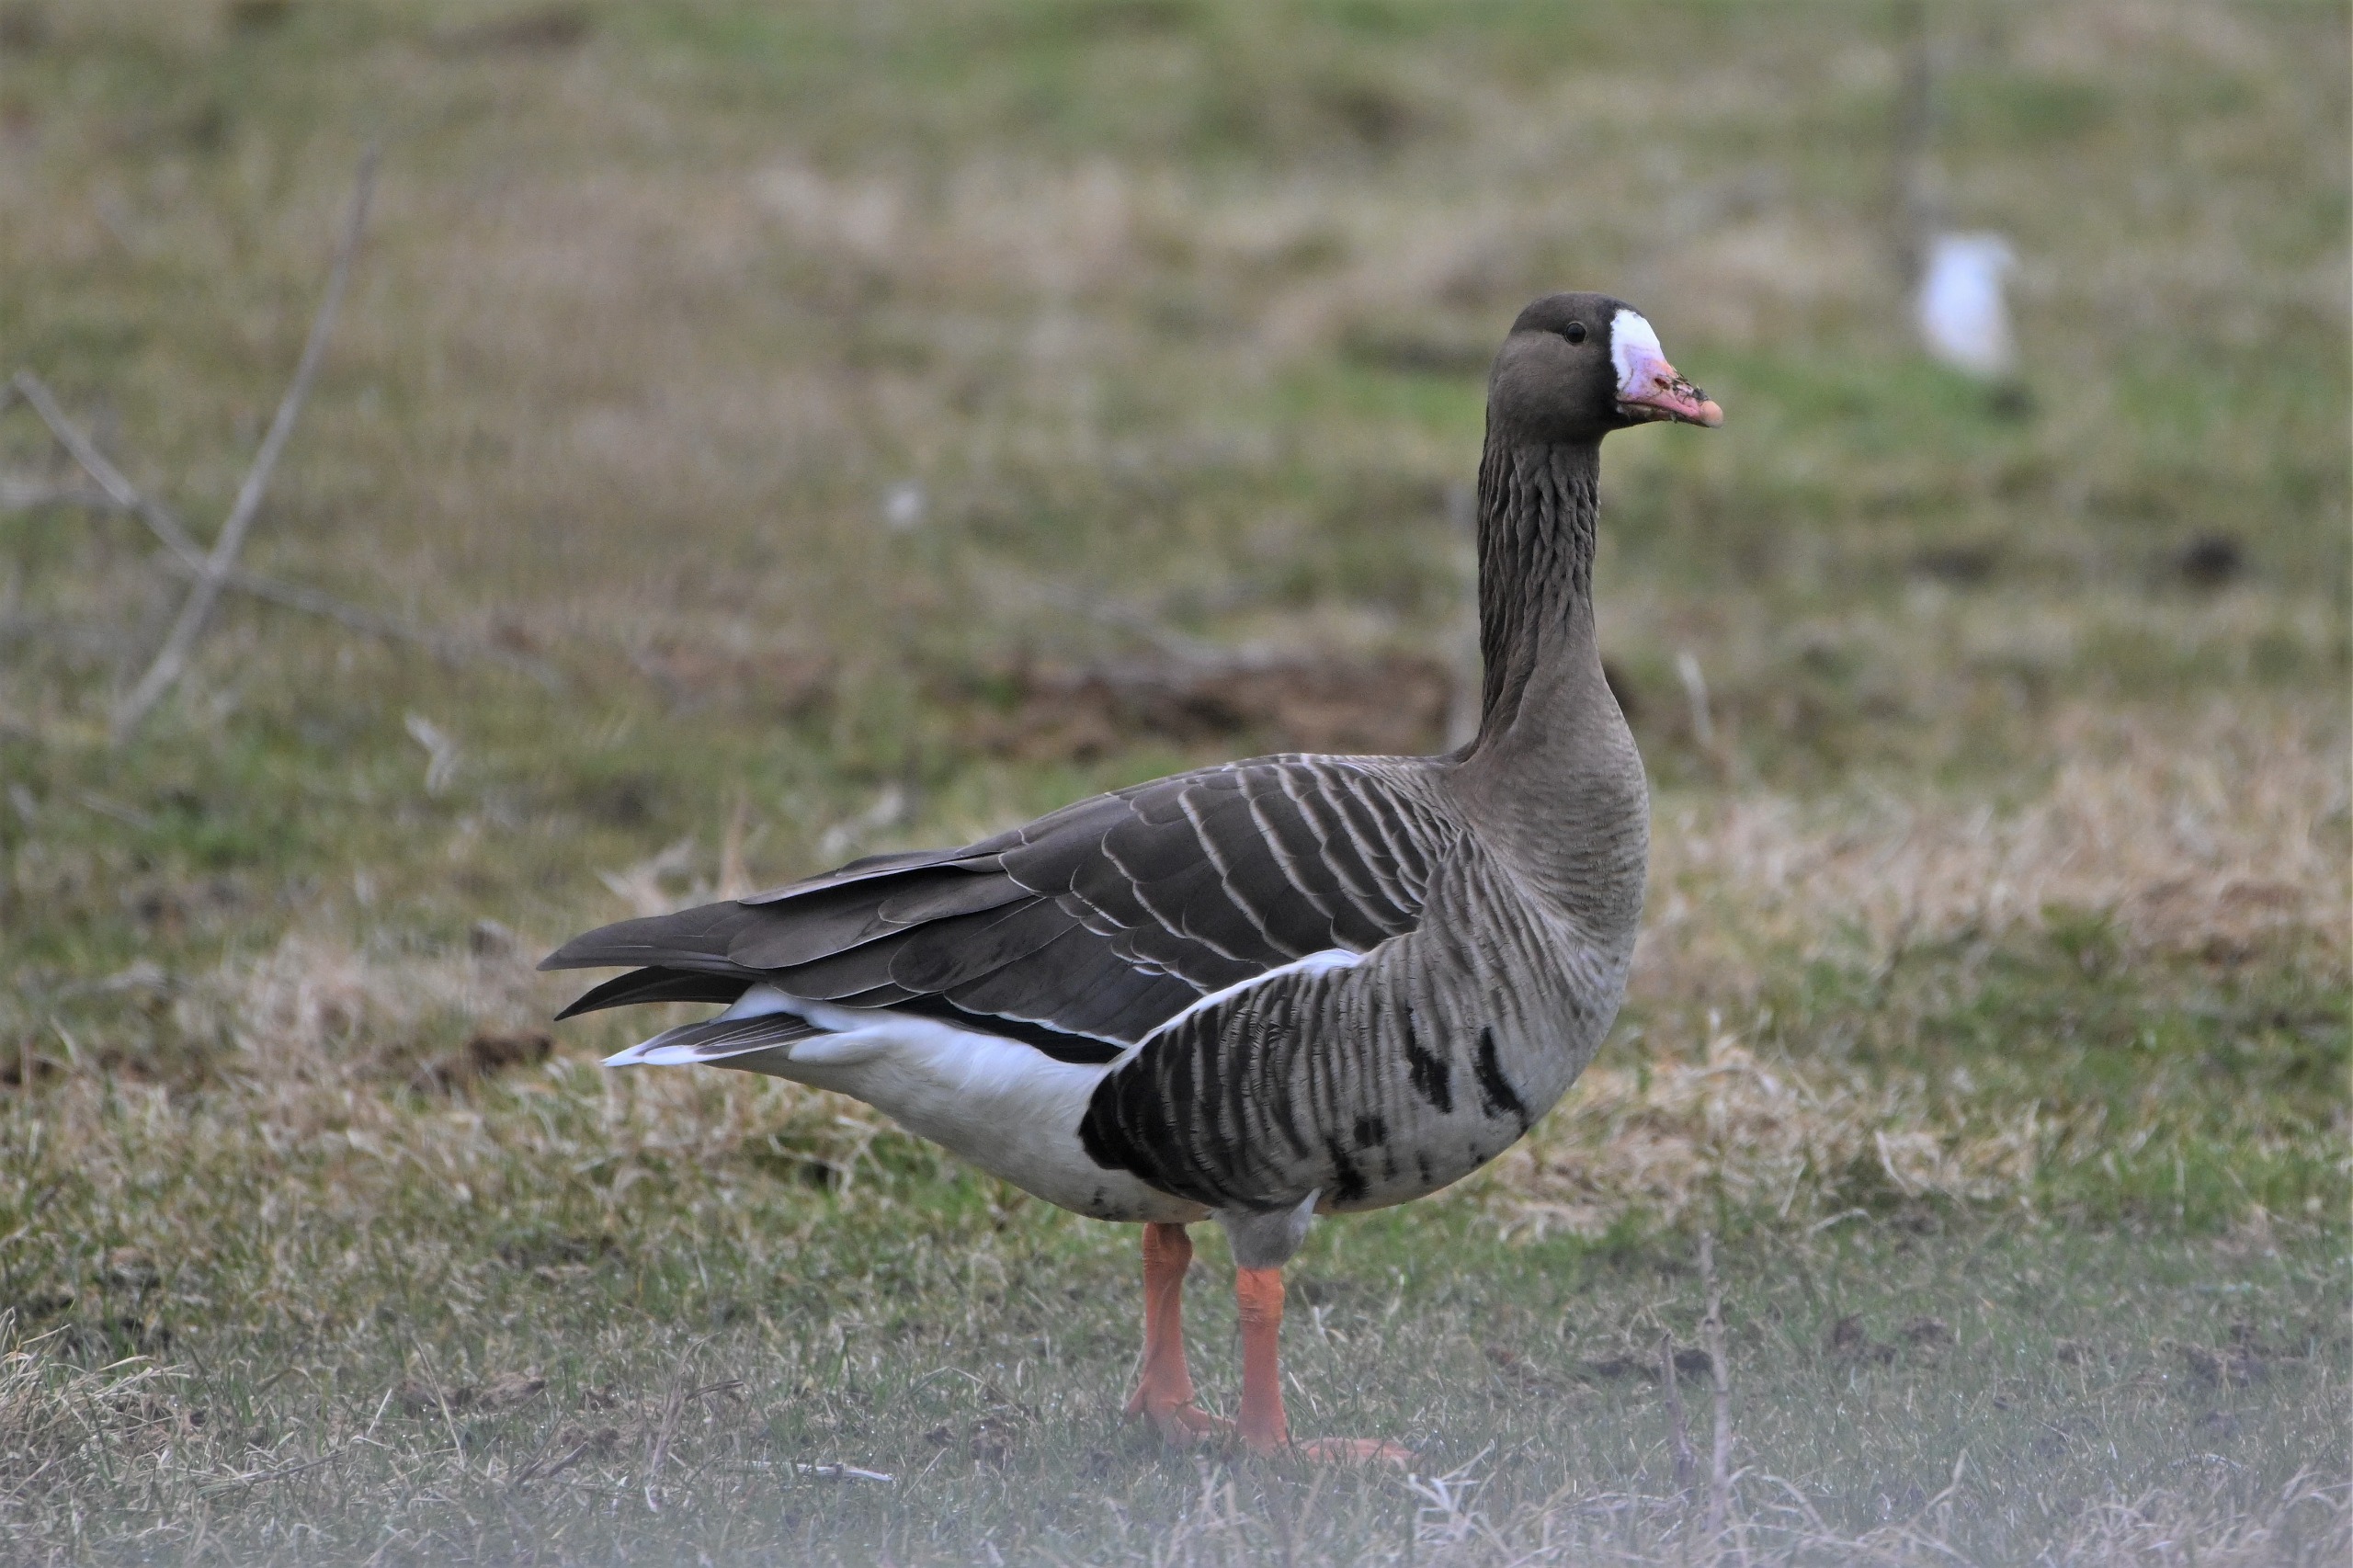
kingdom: Animalia
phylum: Chordata
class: Aves
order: Anseriformes
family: Anatidae
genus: Anser
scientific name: Anser albifrons
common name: Blisgås
